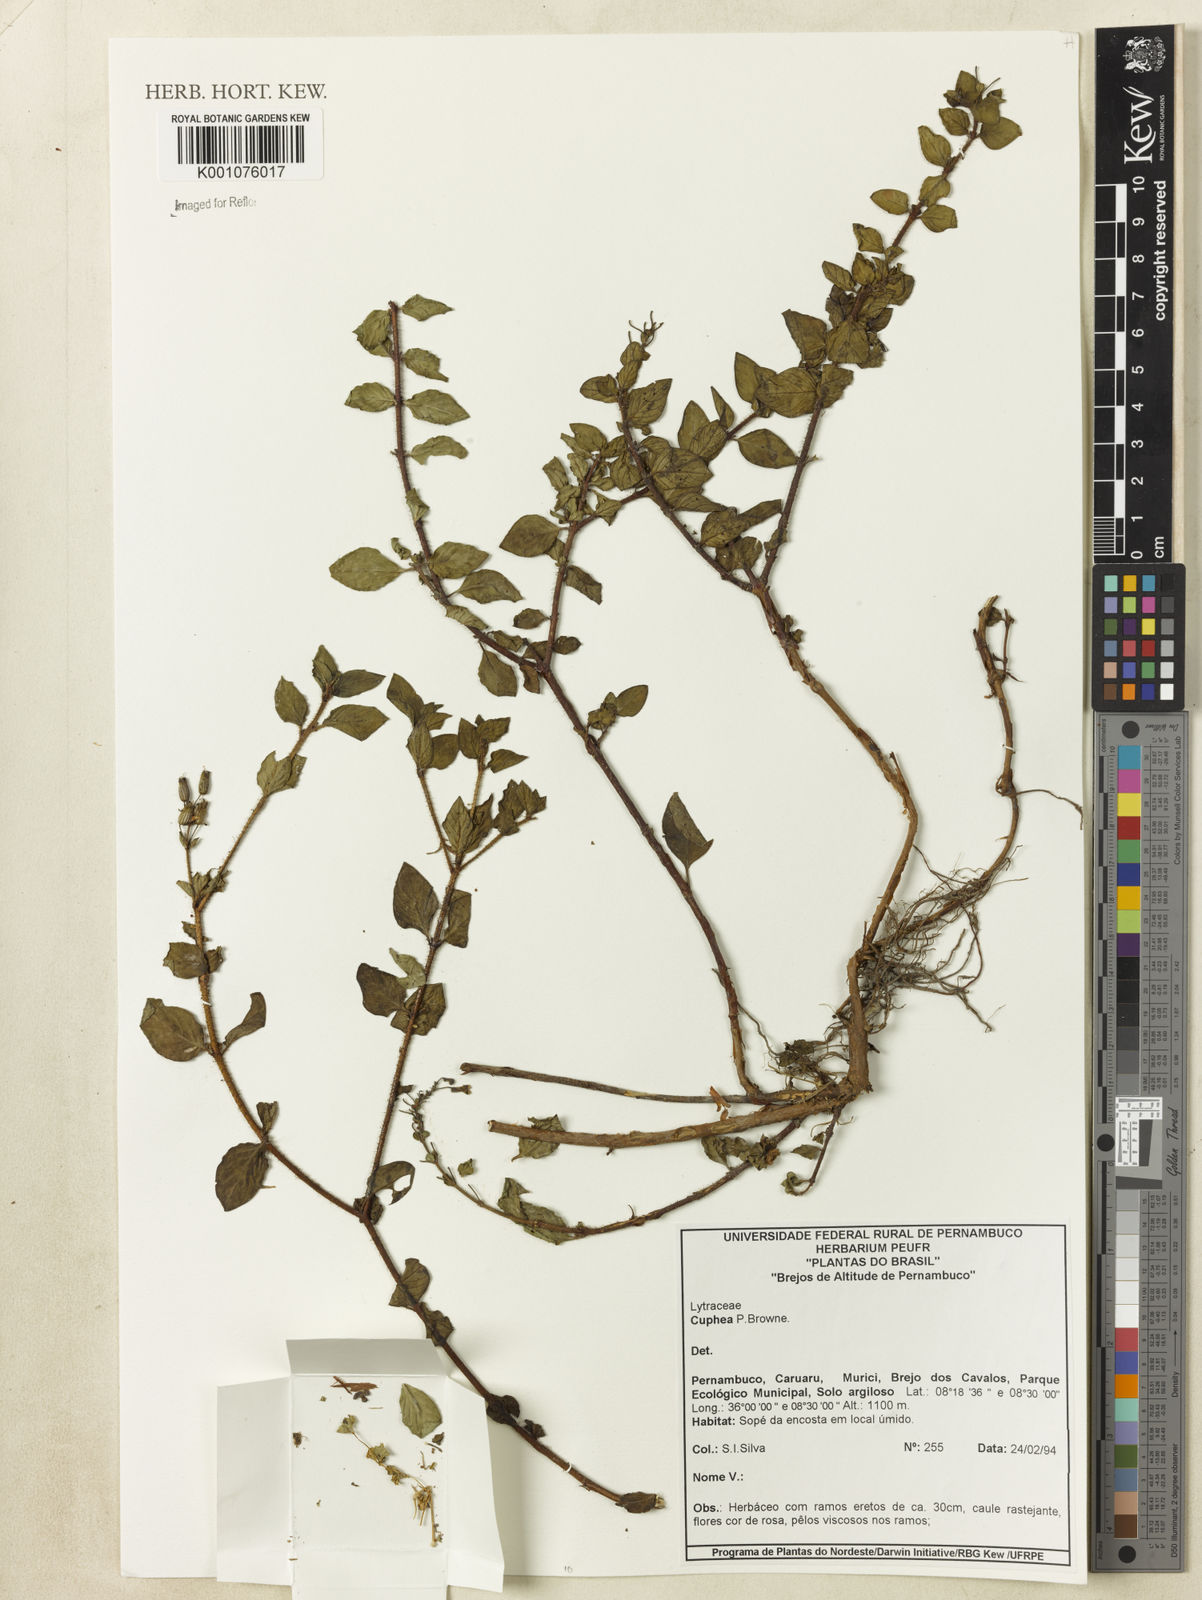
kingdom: Plantae
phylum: Tracheophyta
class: Magnoliopsida
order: Myrtales
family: Lythraceae
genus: Cuphea
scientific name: Cuphea
